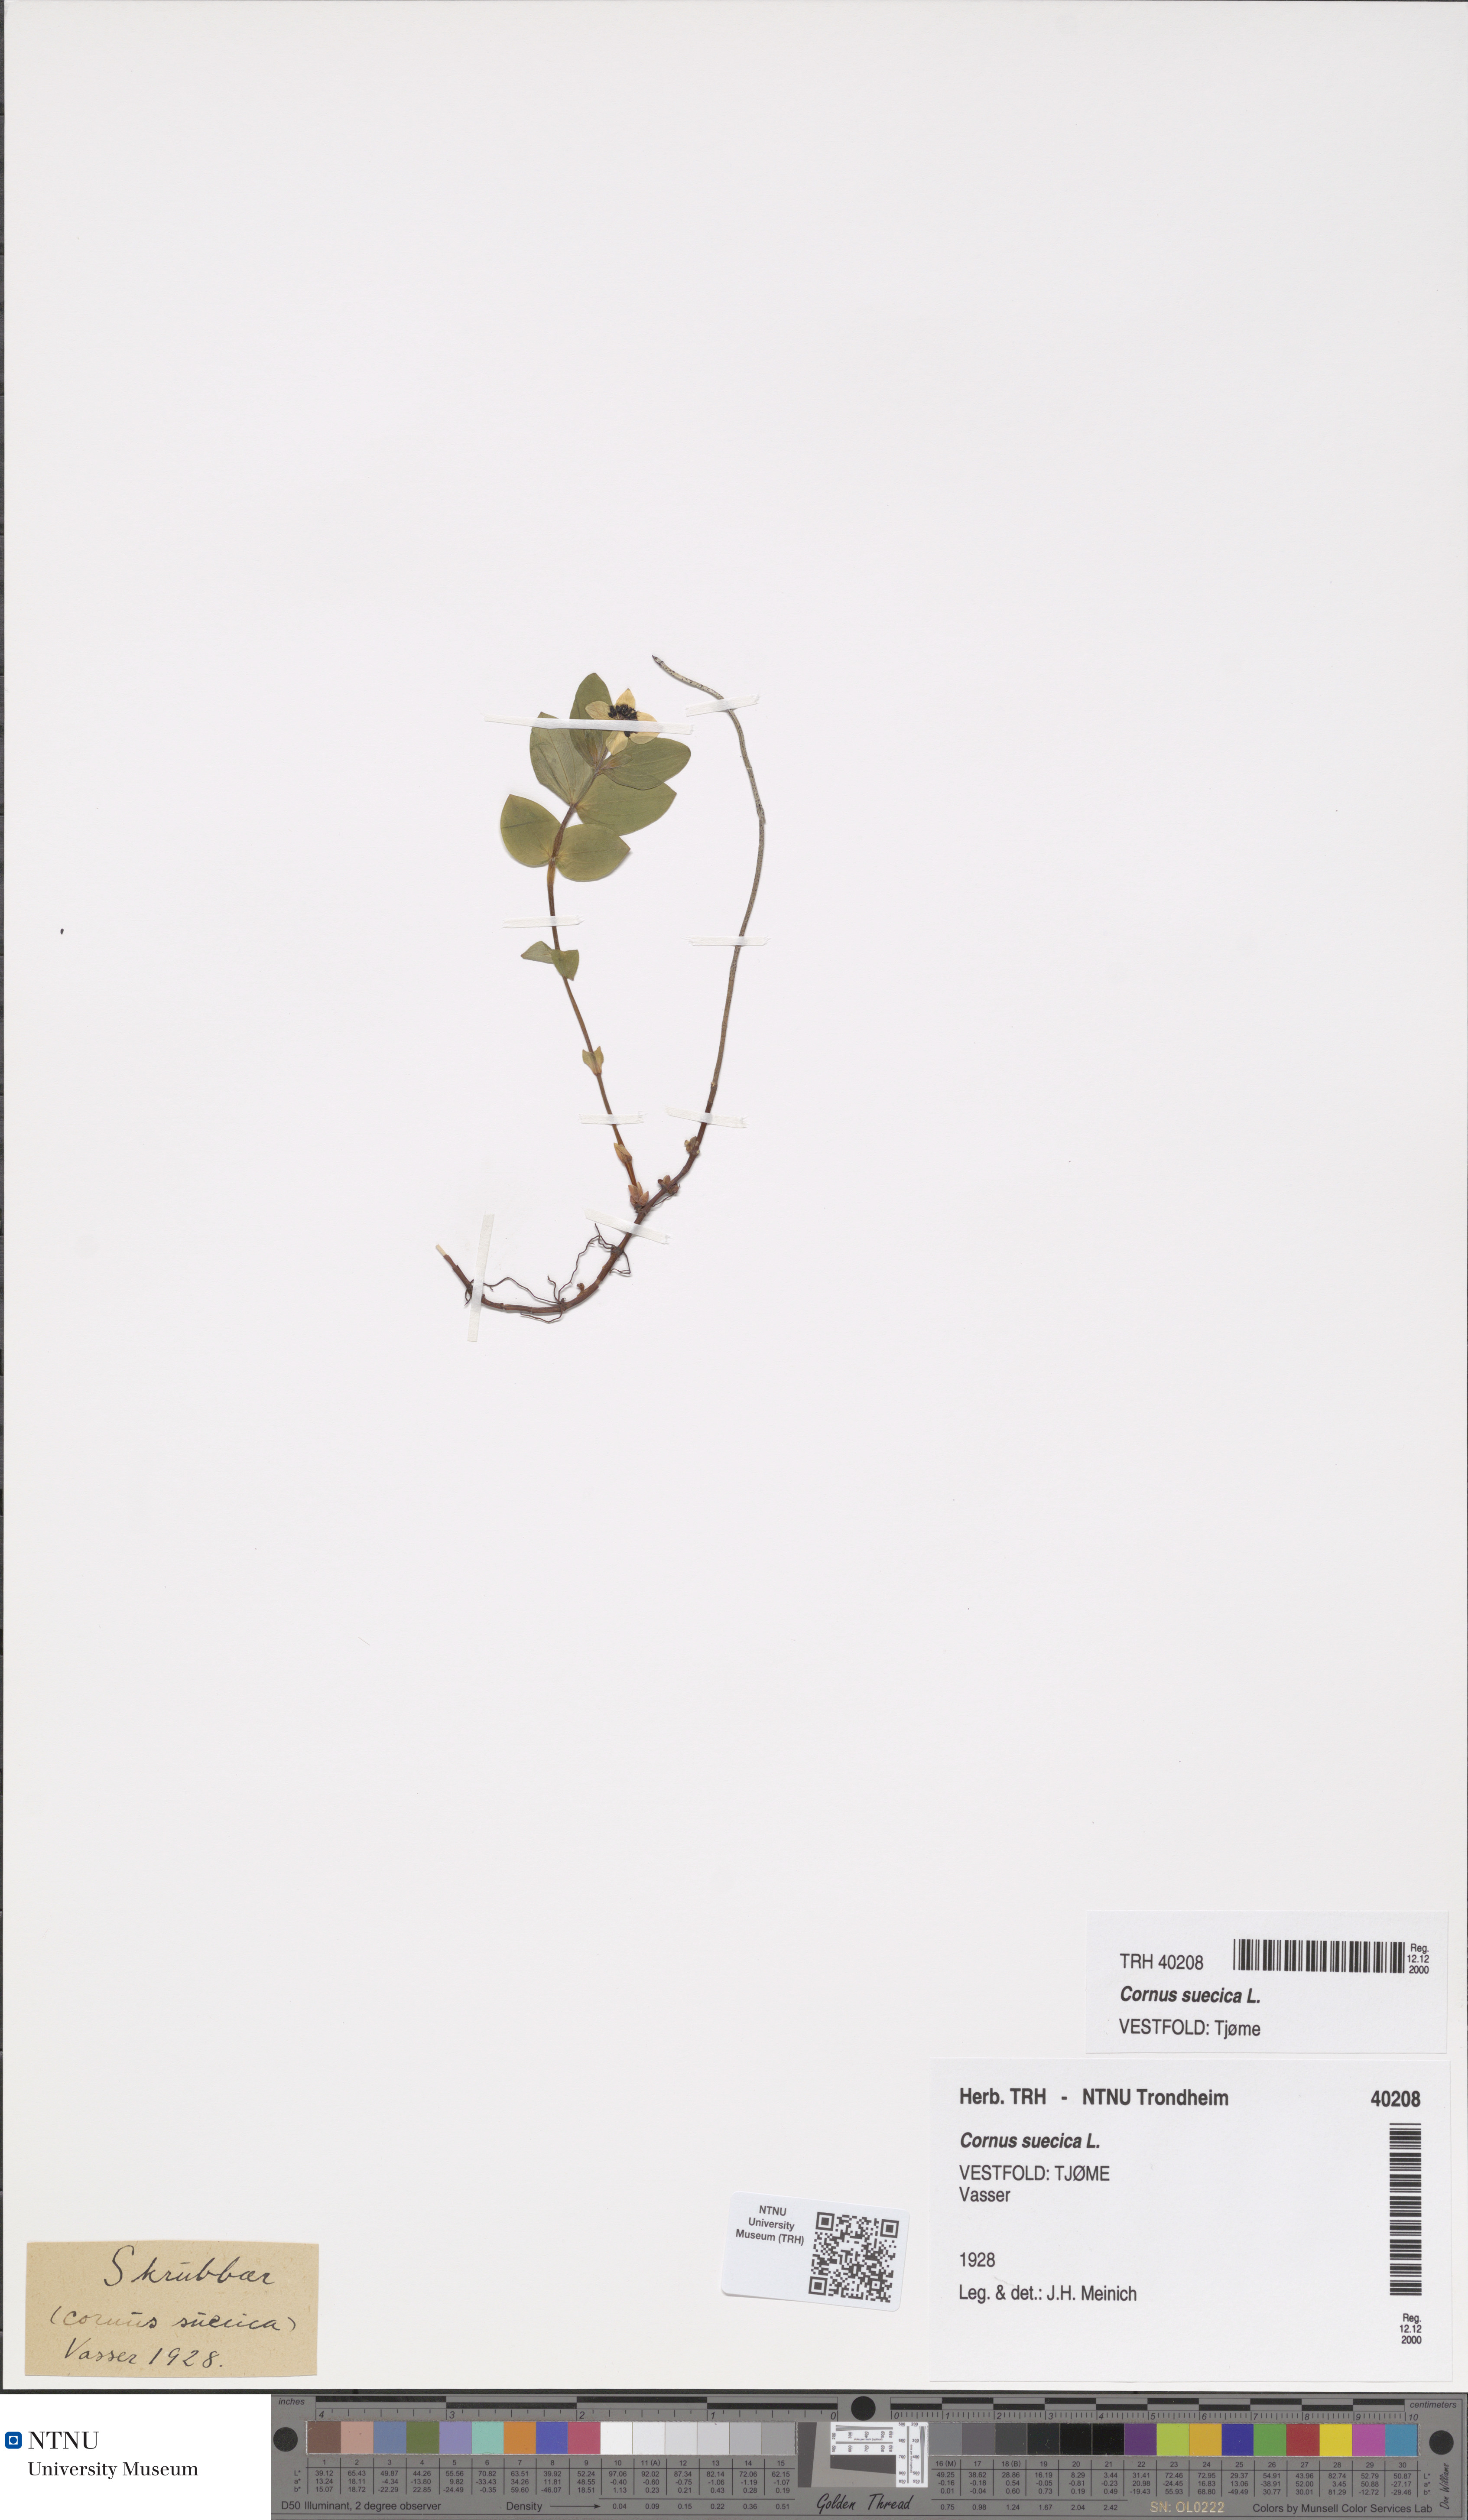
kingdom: Plantae
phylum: Tracheophyta
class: Magnoliopsida
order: Cornales
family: Cornaceae
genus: Cornus
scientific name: Cornus suecica
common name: Dwarf cornel
